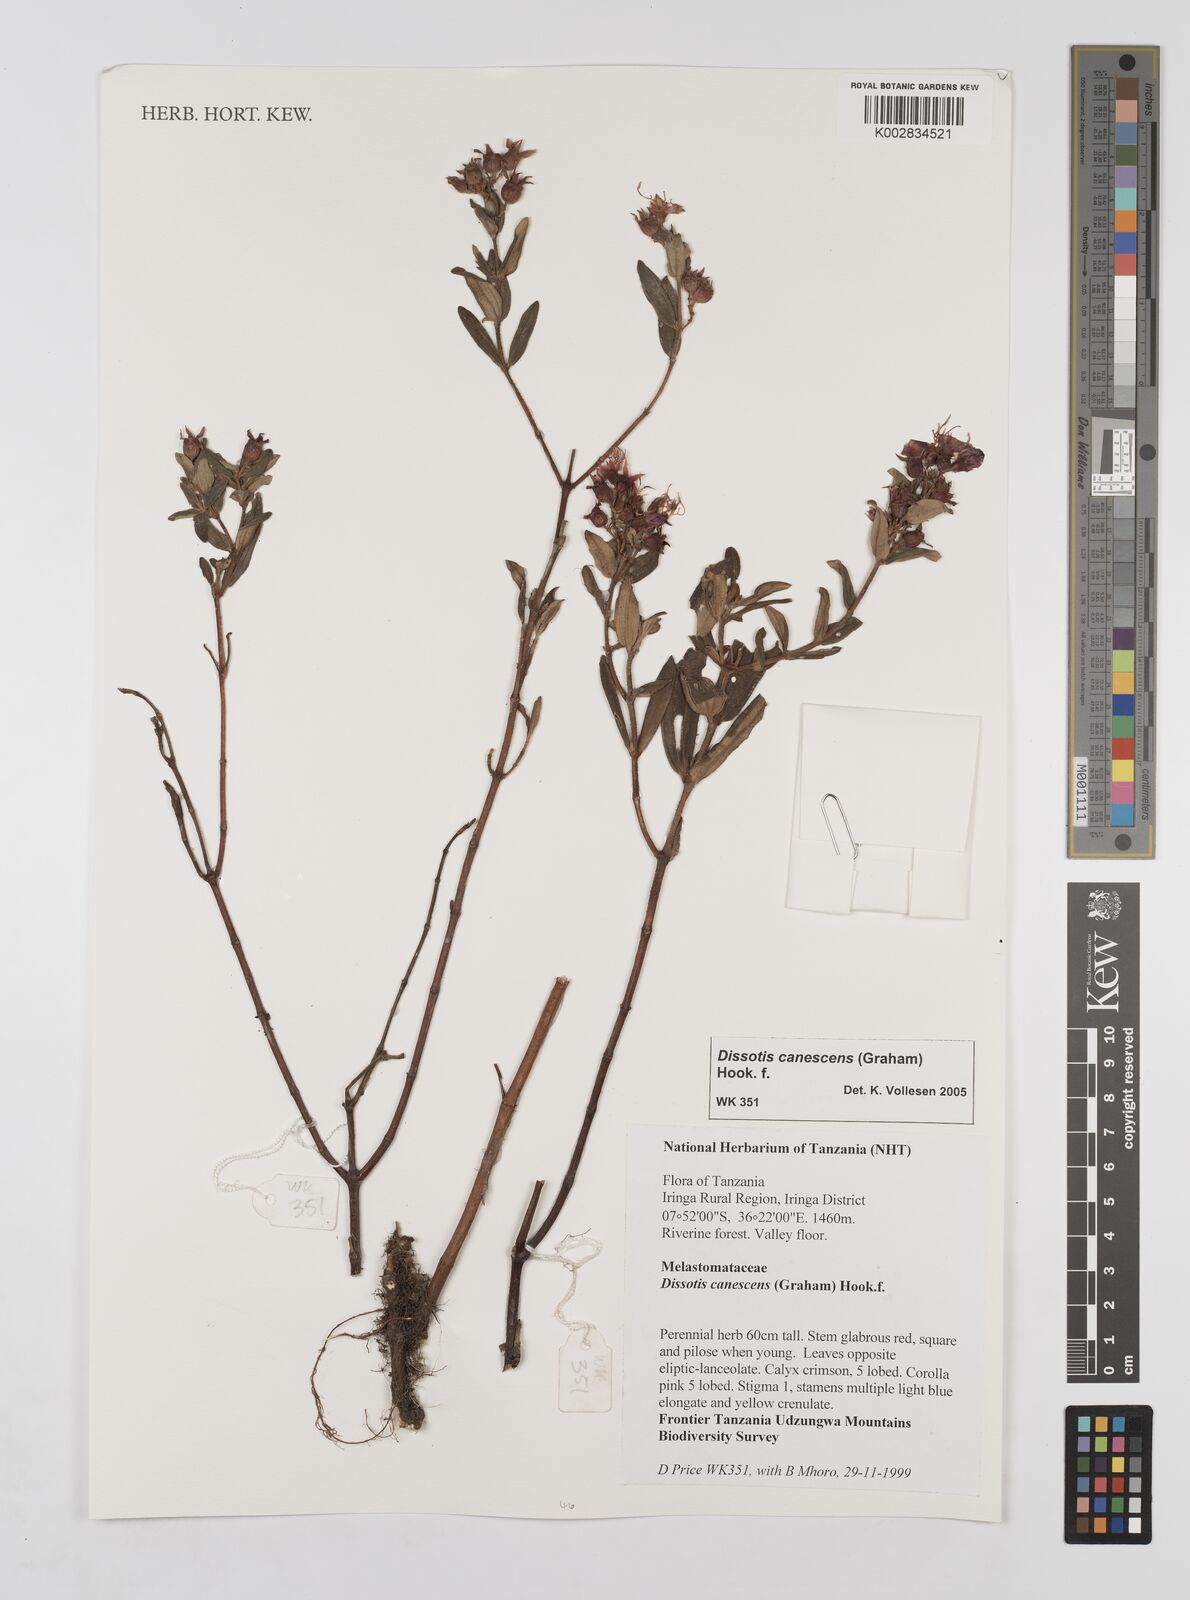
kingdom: Plantae
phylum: Tracheophyta
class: Magnoliopsida
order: Myrtales
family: Melastomataceae
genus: Argyrella
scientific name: Argyrella canescens
